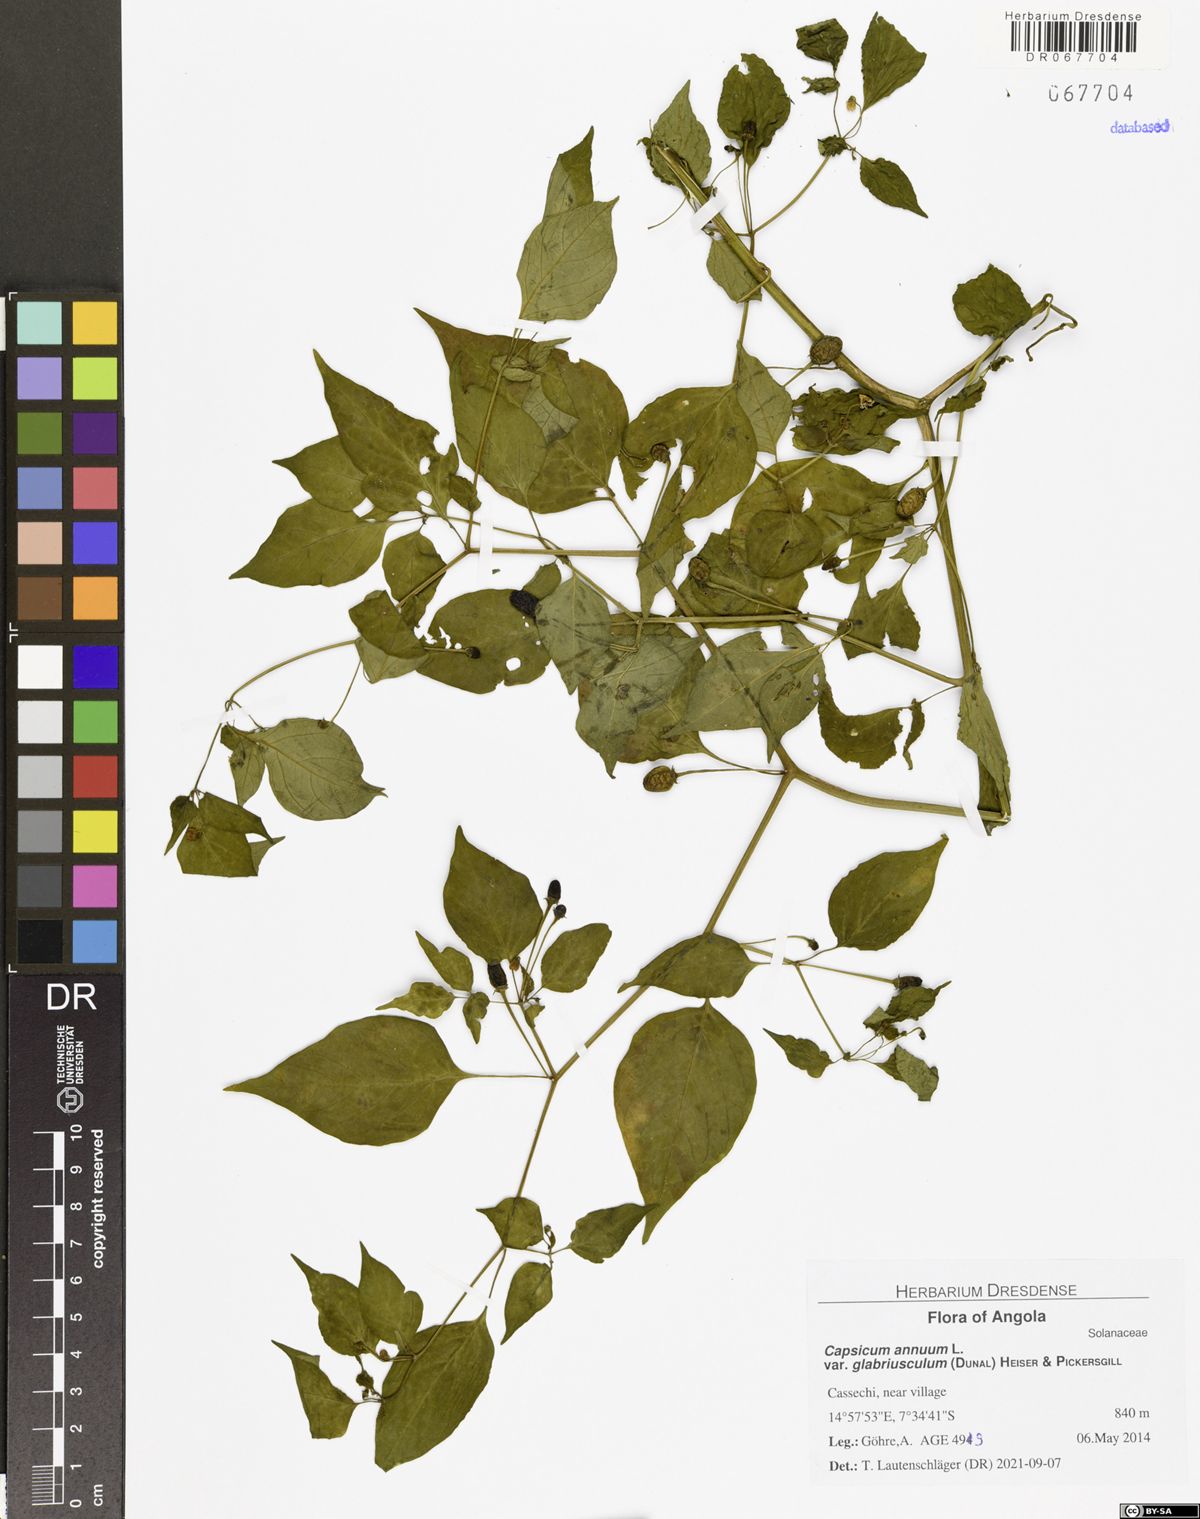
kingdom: Plantae
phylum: Tracheophyta
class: Magnoliopsida
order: Solanales
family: Solanaceae
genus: Capsicum
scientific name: Capsicum annuum
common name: Sweet pepper
